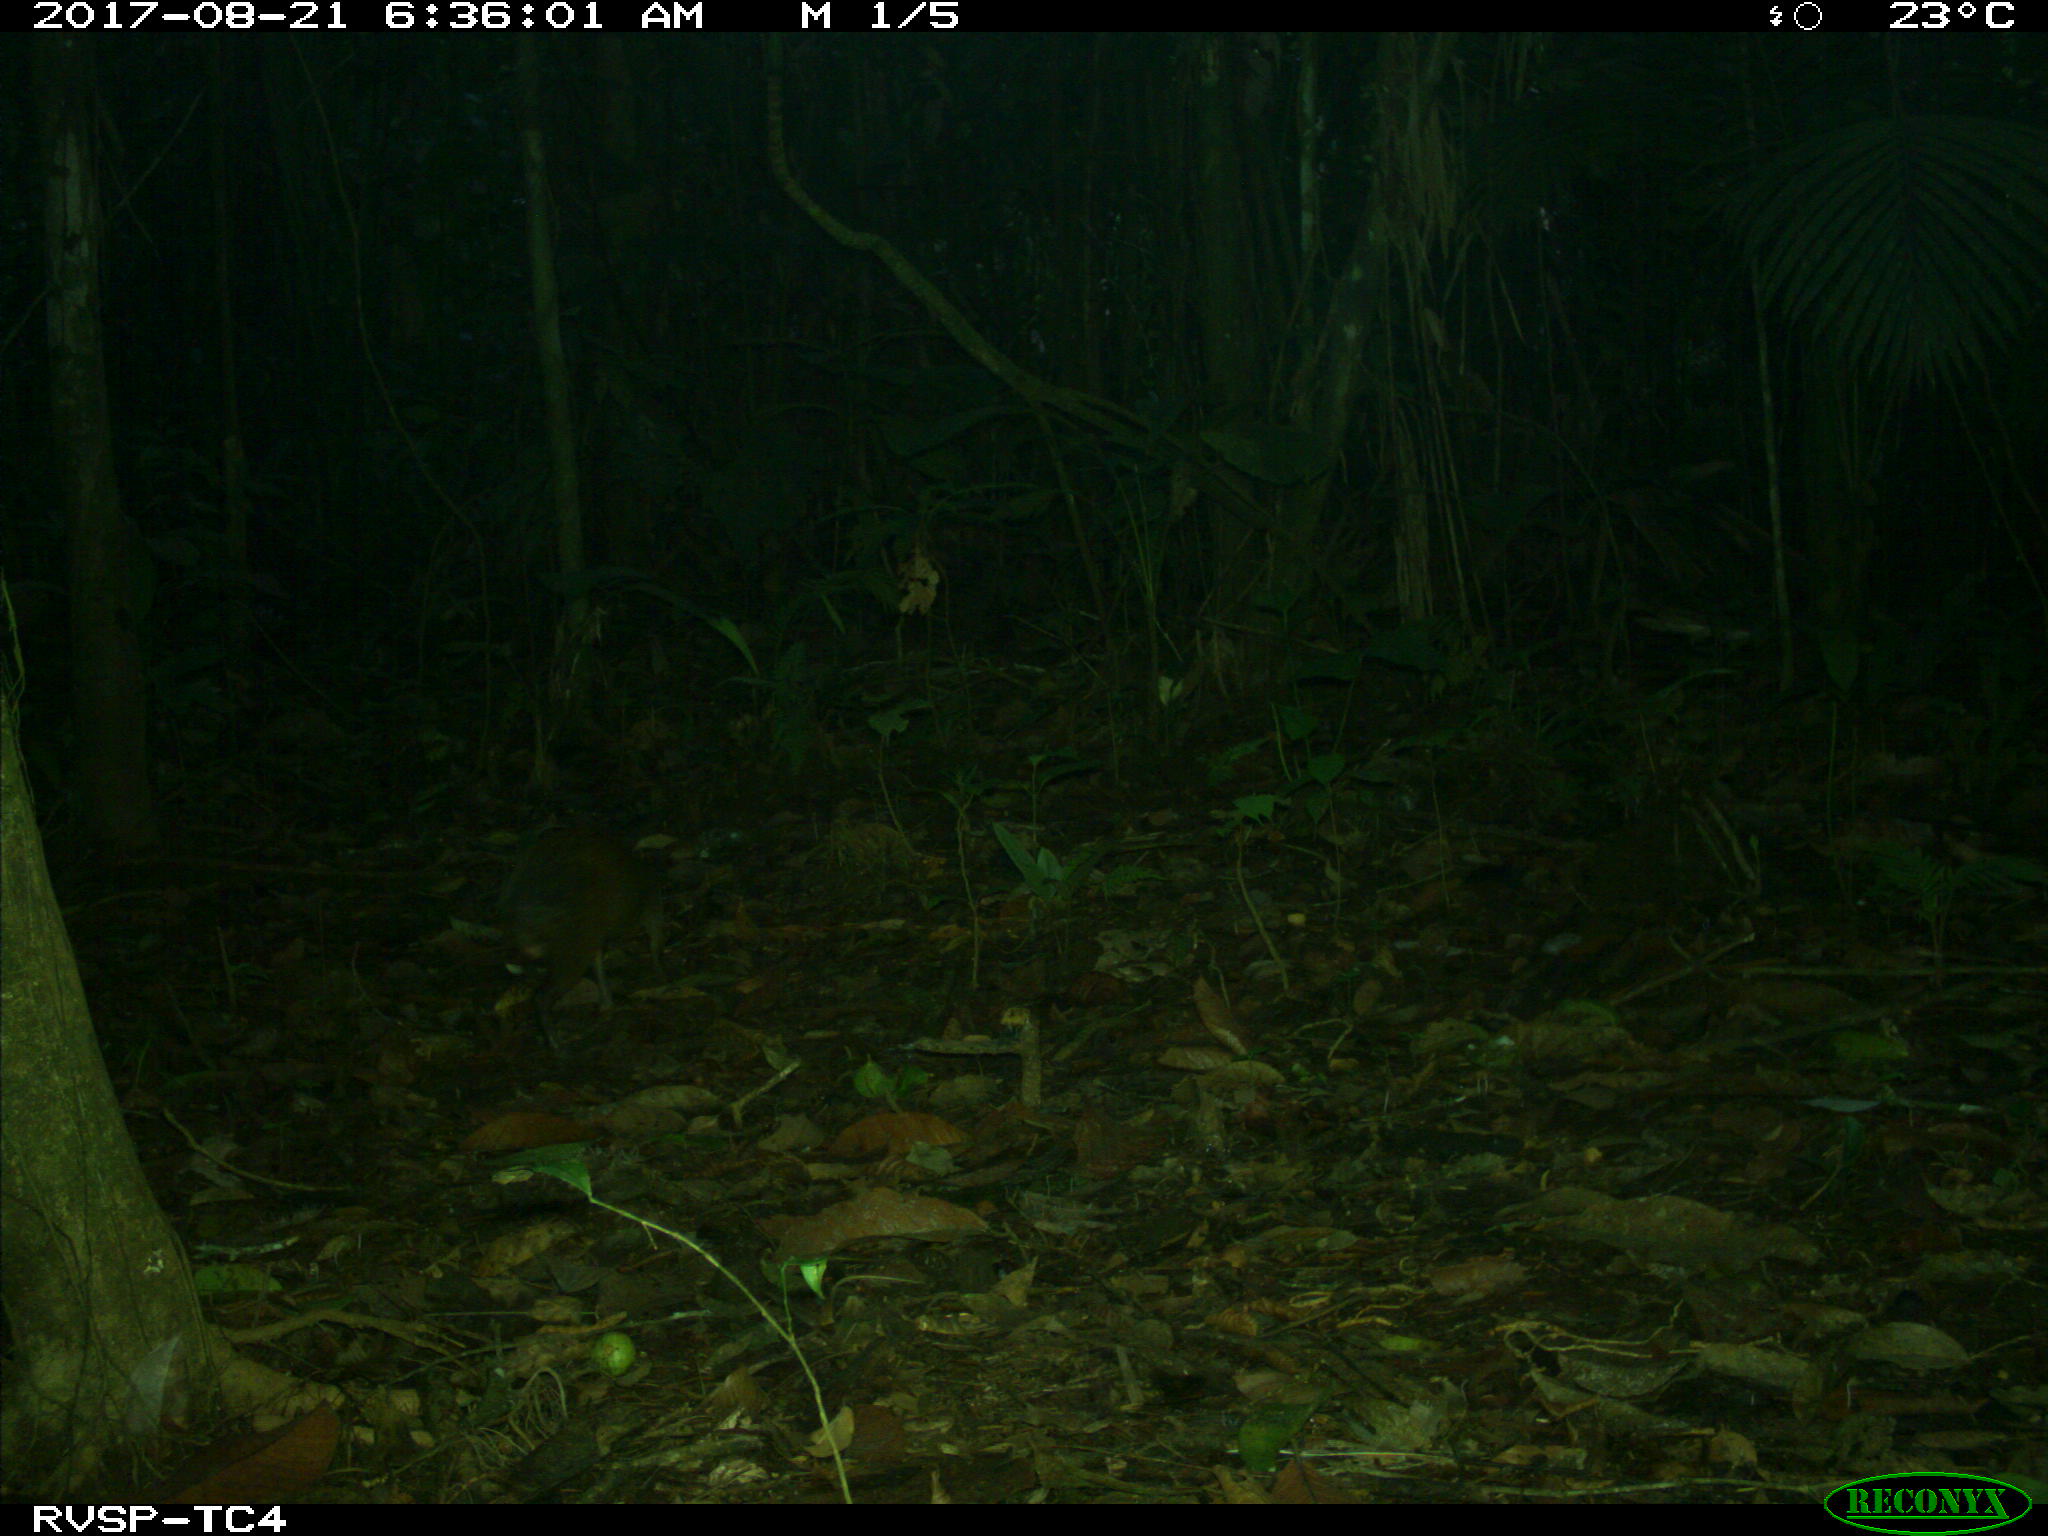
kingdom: Animalia
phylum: Chordata
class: Mammalia
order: Rodentia
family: Dasyproctidae
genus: Dasyprocta
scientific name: Dasyprocta punctata
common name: Central american agouti
